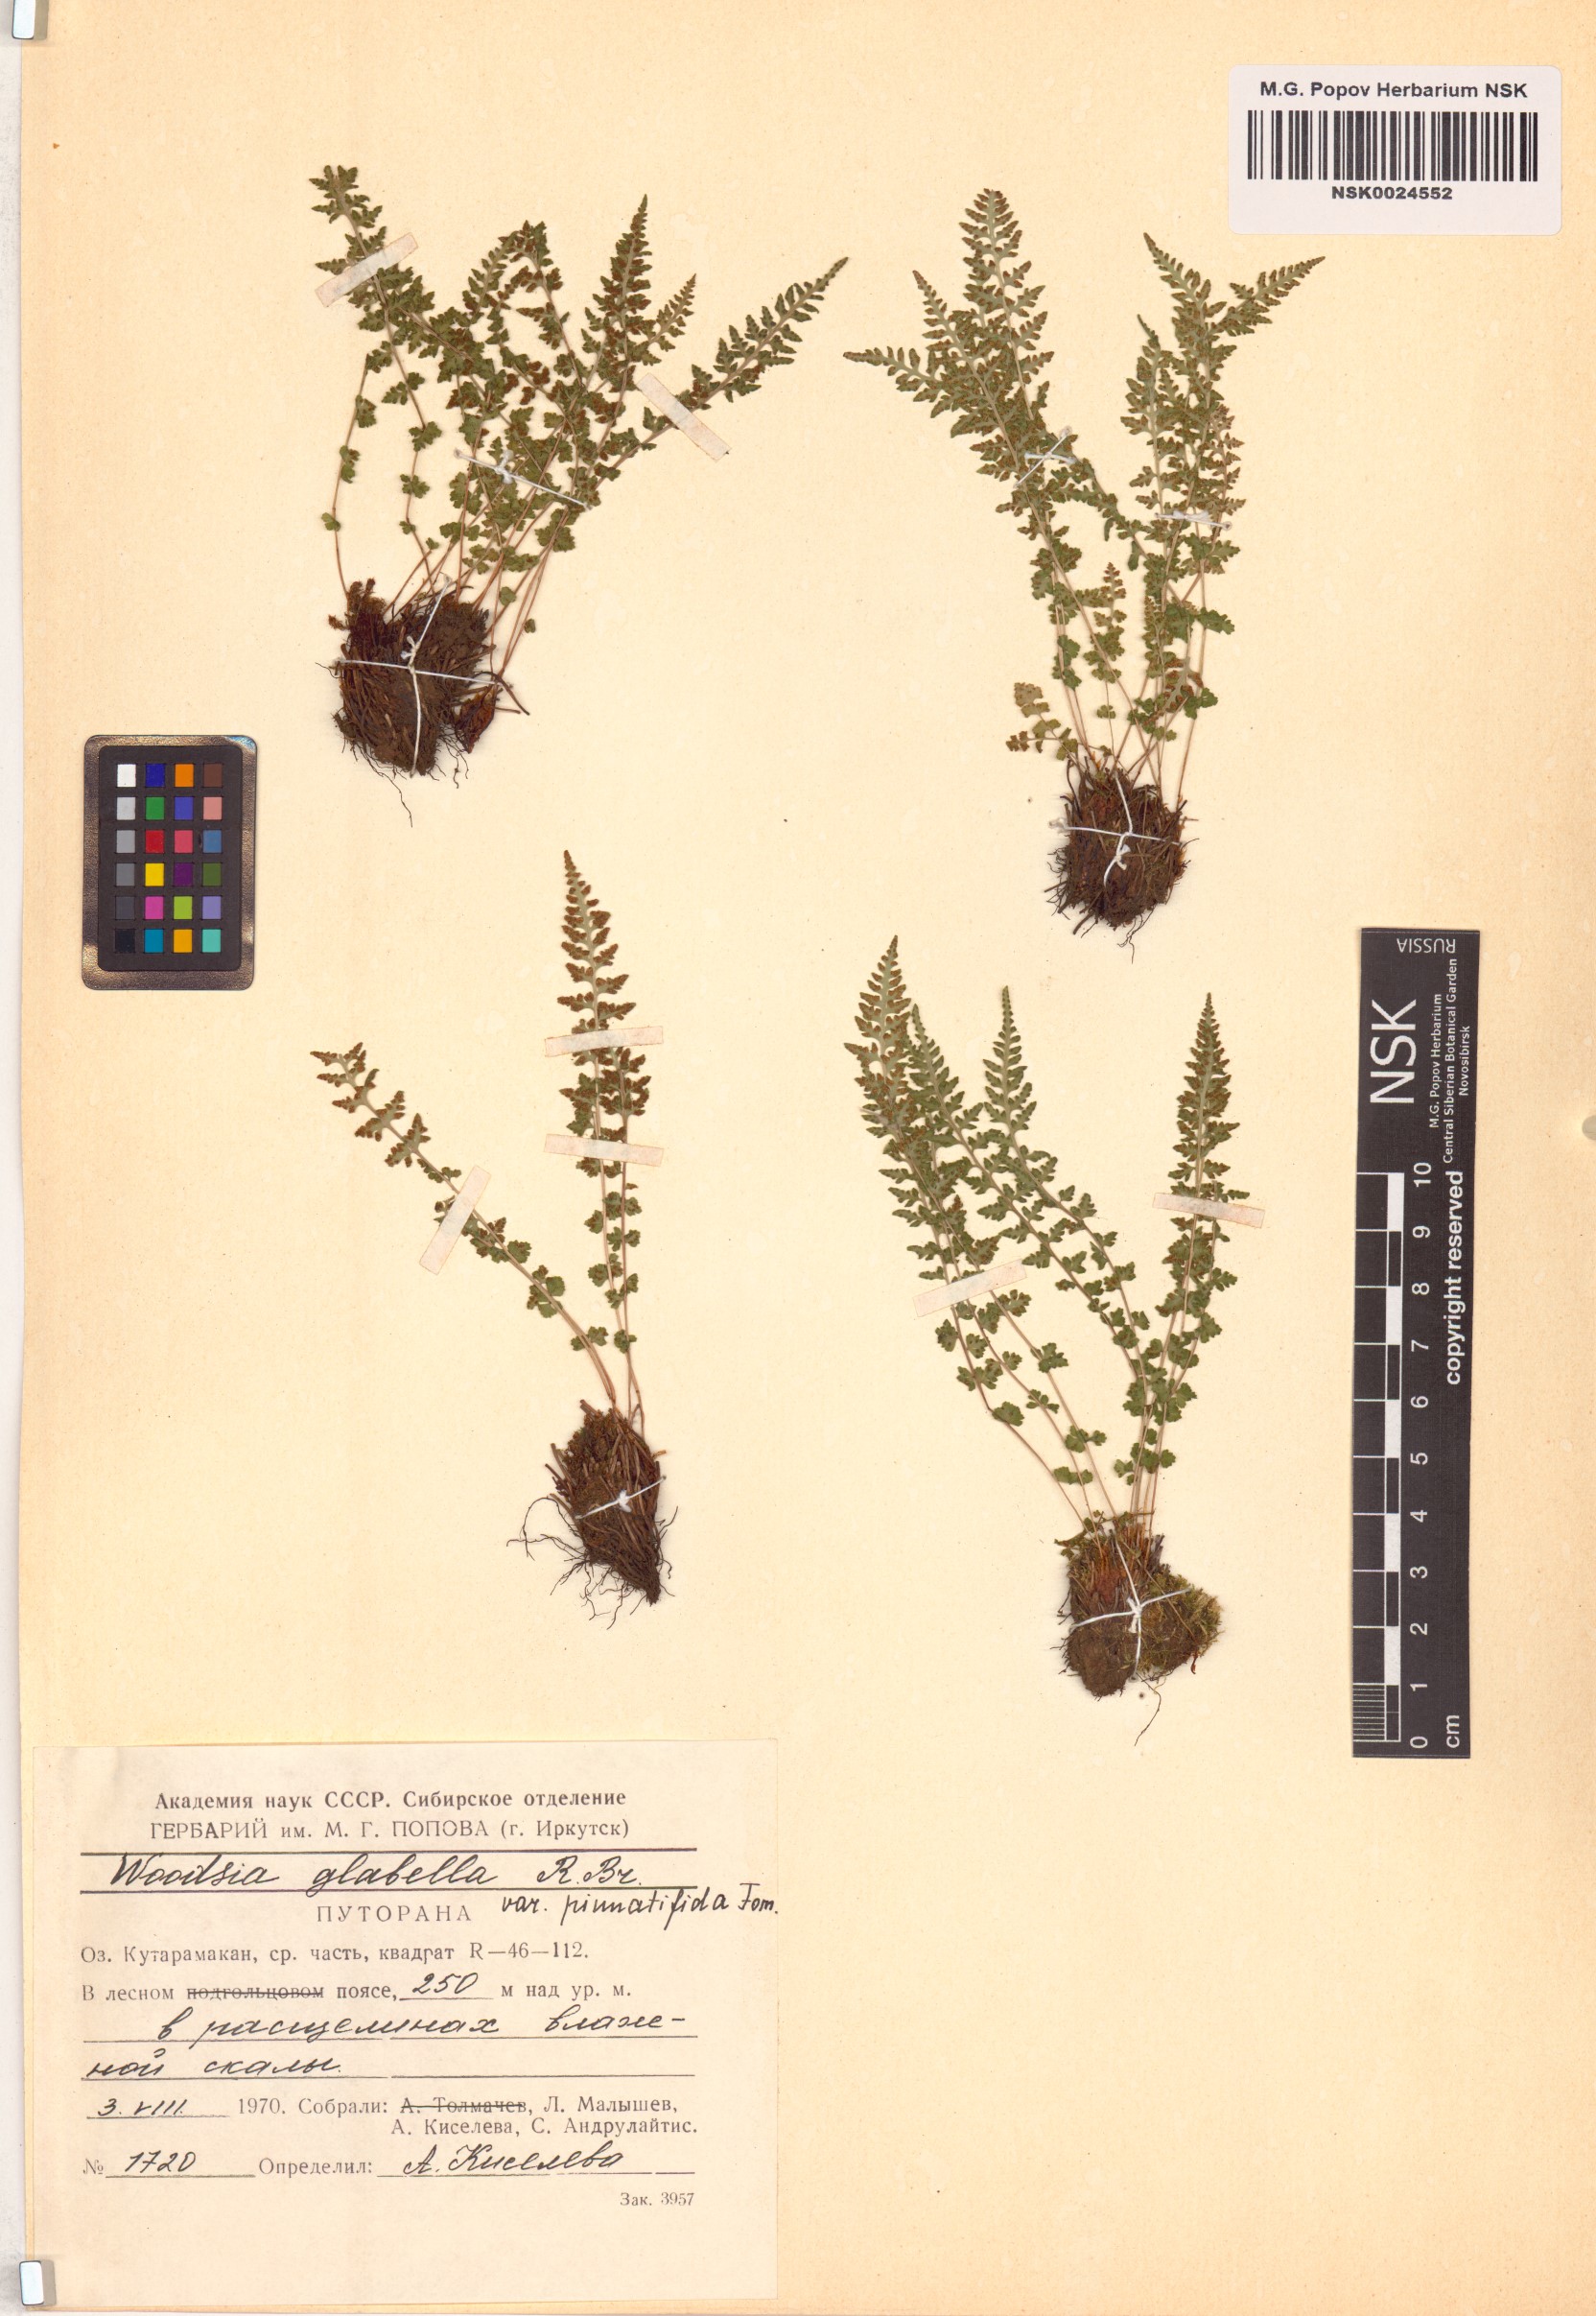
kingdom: Plantae
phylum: Tracheophyta
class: Polypodiopsida
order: Polypodiales
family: Woodsiaceae
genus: Woodsia
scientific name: Woodsia pulchella
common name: Graceful woodsia
